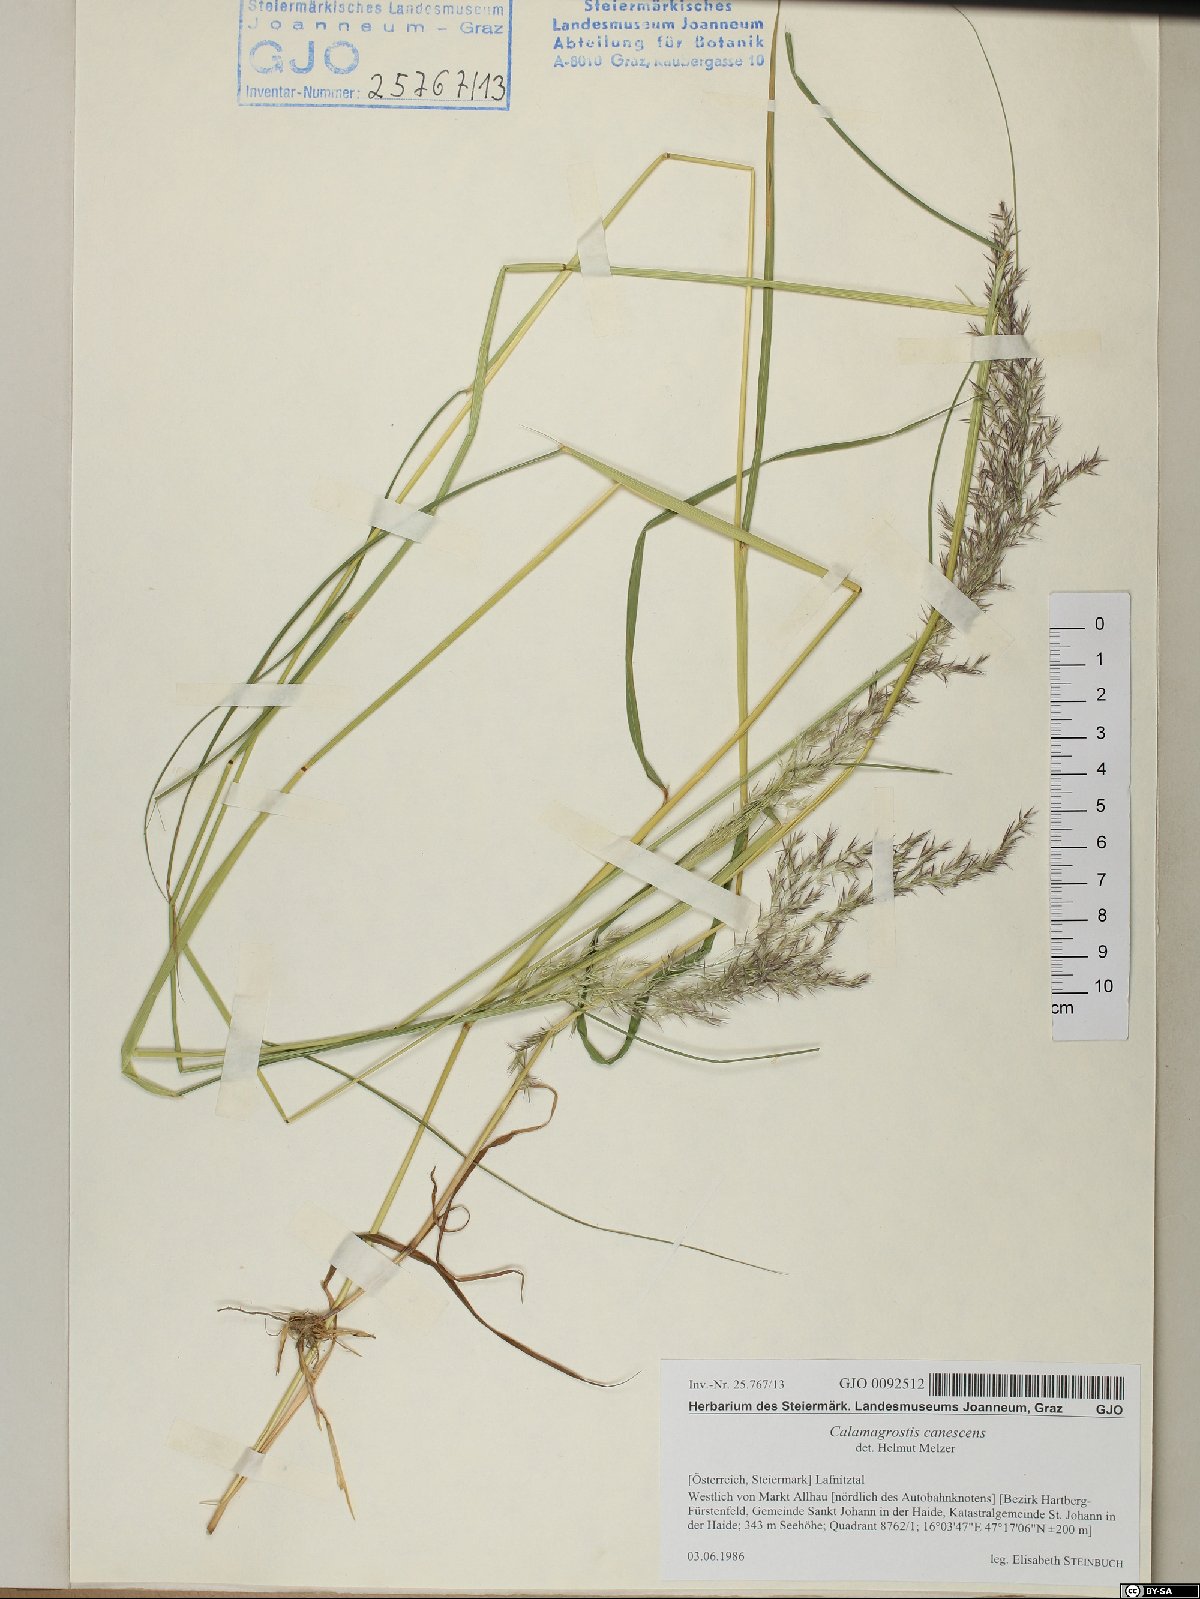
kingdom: Plantae
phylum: Tracheophyta
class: Liliopsida
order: Poales
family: Poaceae
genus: Calamagrostis
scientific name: Calamagrostis canescens
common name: Purple small-reed
